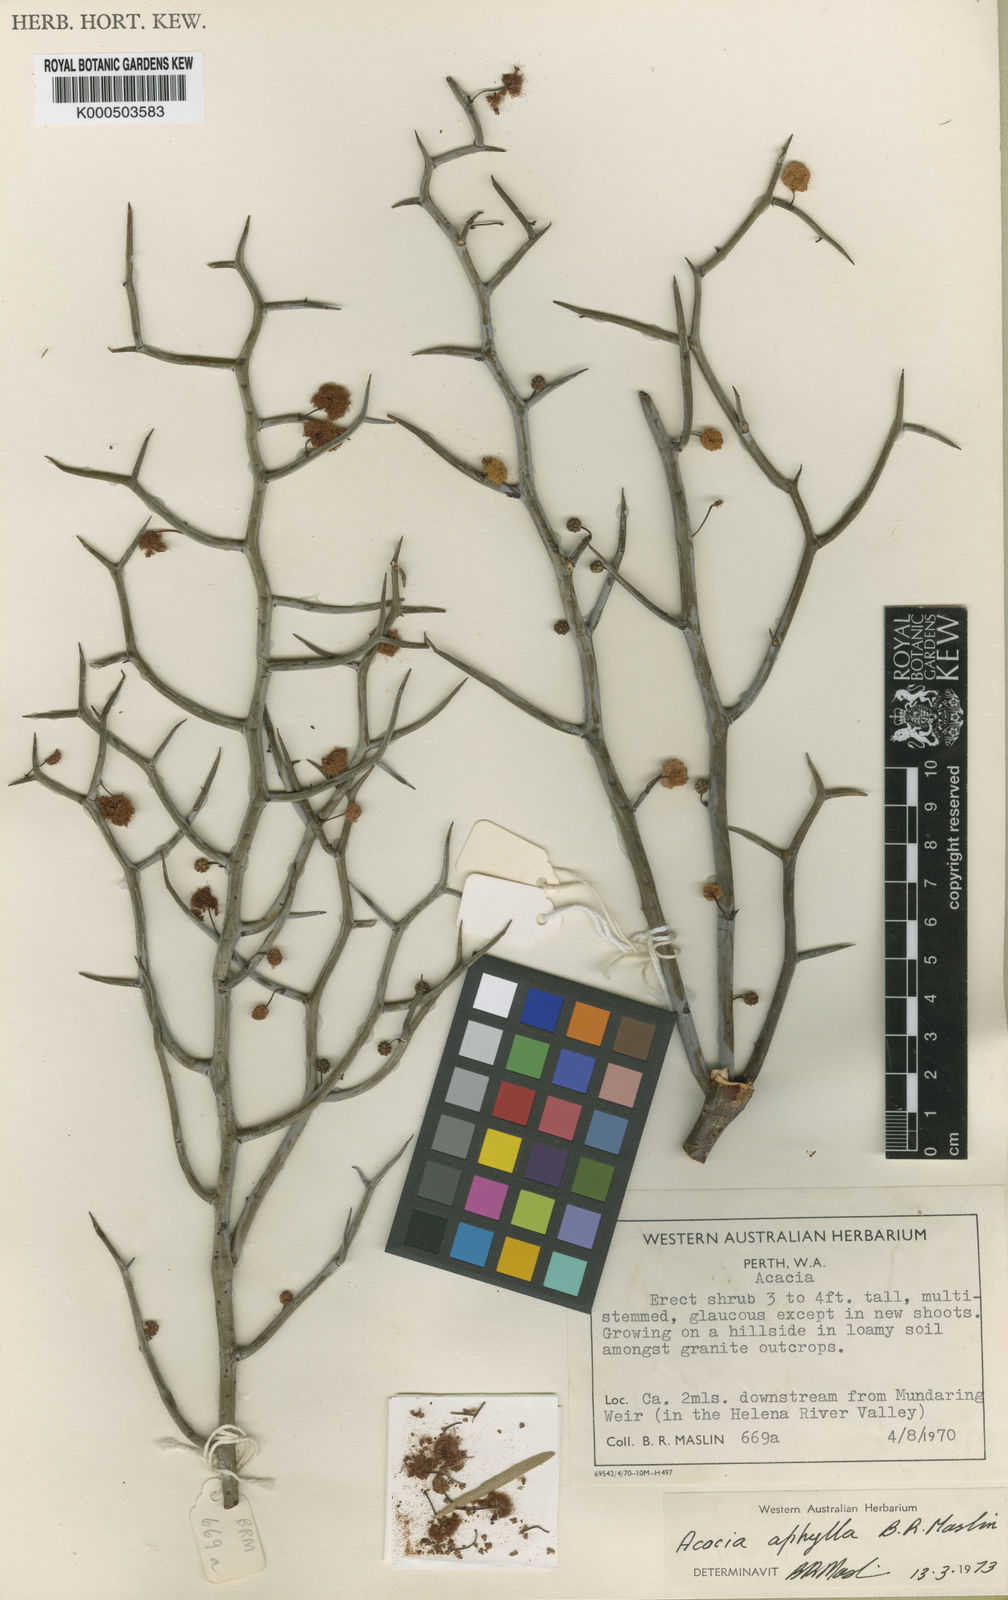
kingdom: Plantae
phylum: Tracheophyta
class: Magnoliopsida
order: Fabales
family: Fabaceae
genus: Acacia
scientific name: Acacia aphylla
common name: Leafless rock wattle
